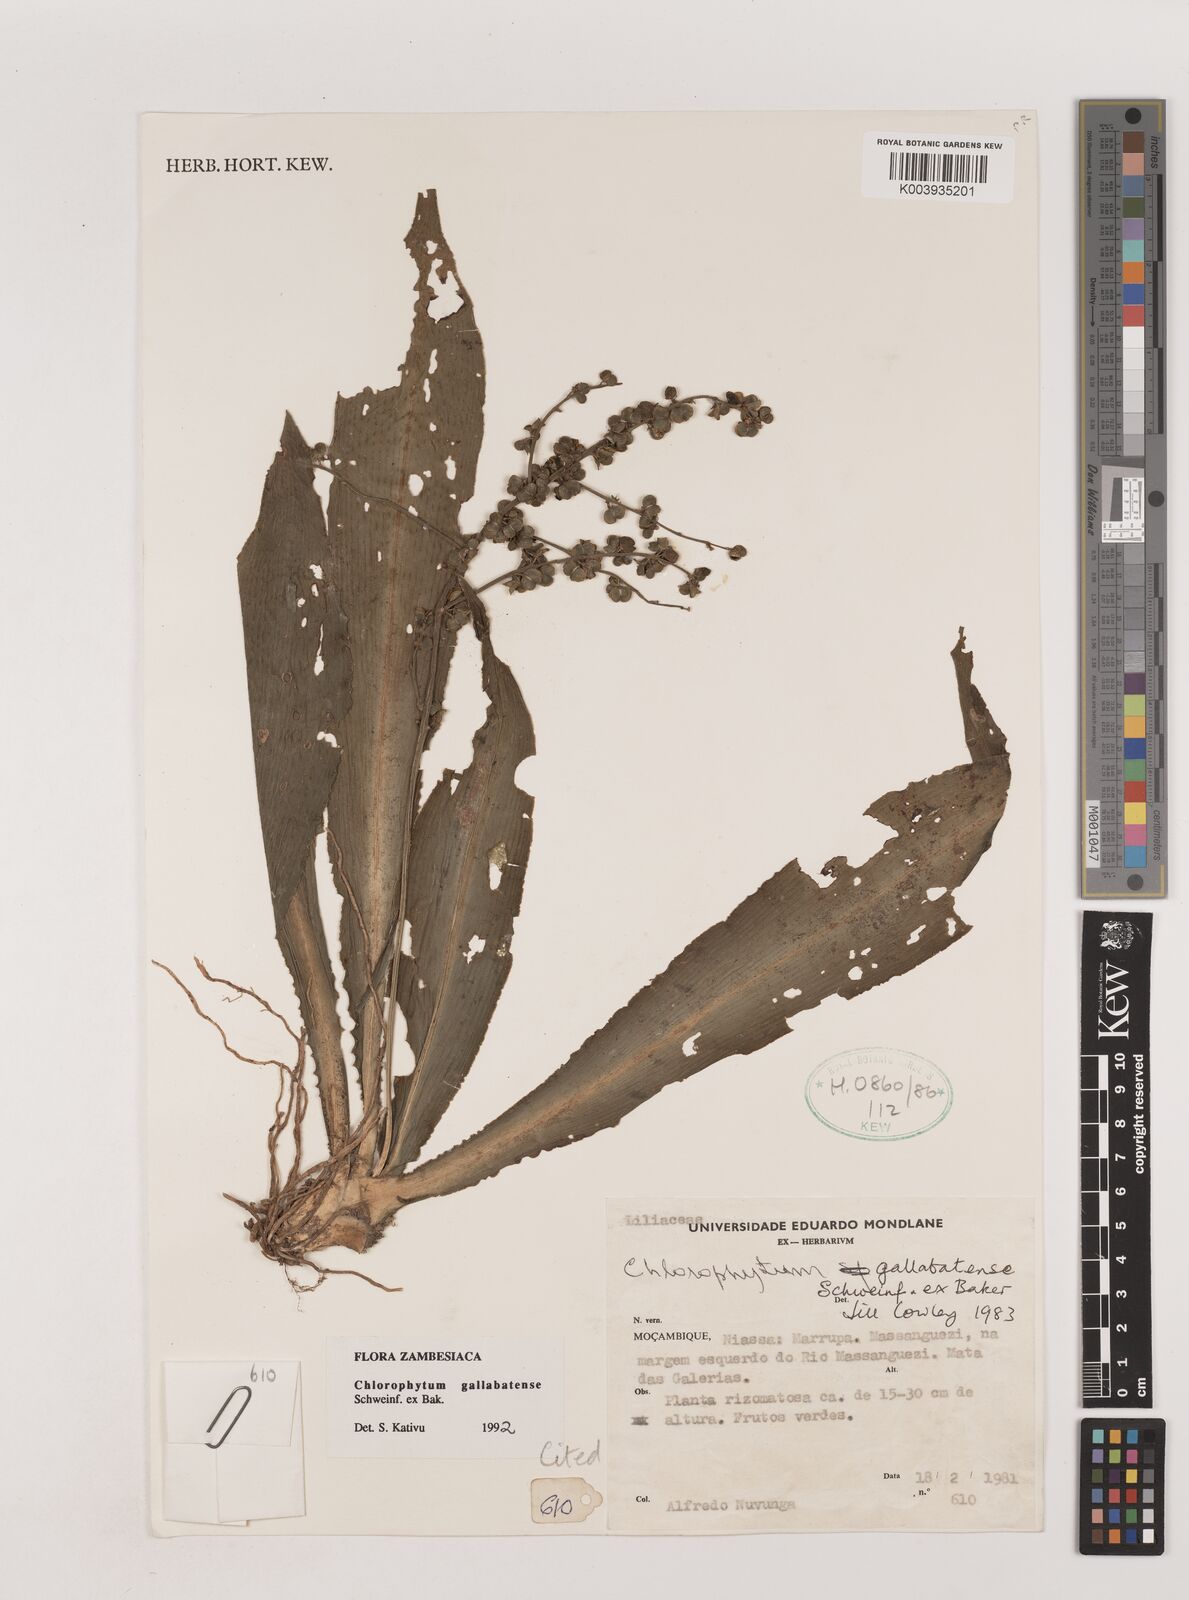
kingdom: Plantae
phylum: Tracheophyta
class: Liliopsida
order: Asparagales
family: Asparagaceae
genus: Chlorophytum
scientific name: Chlorophytum gallabatense
